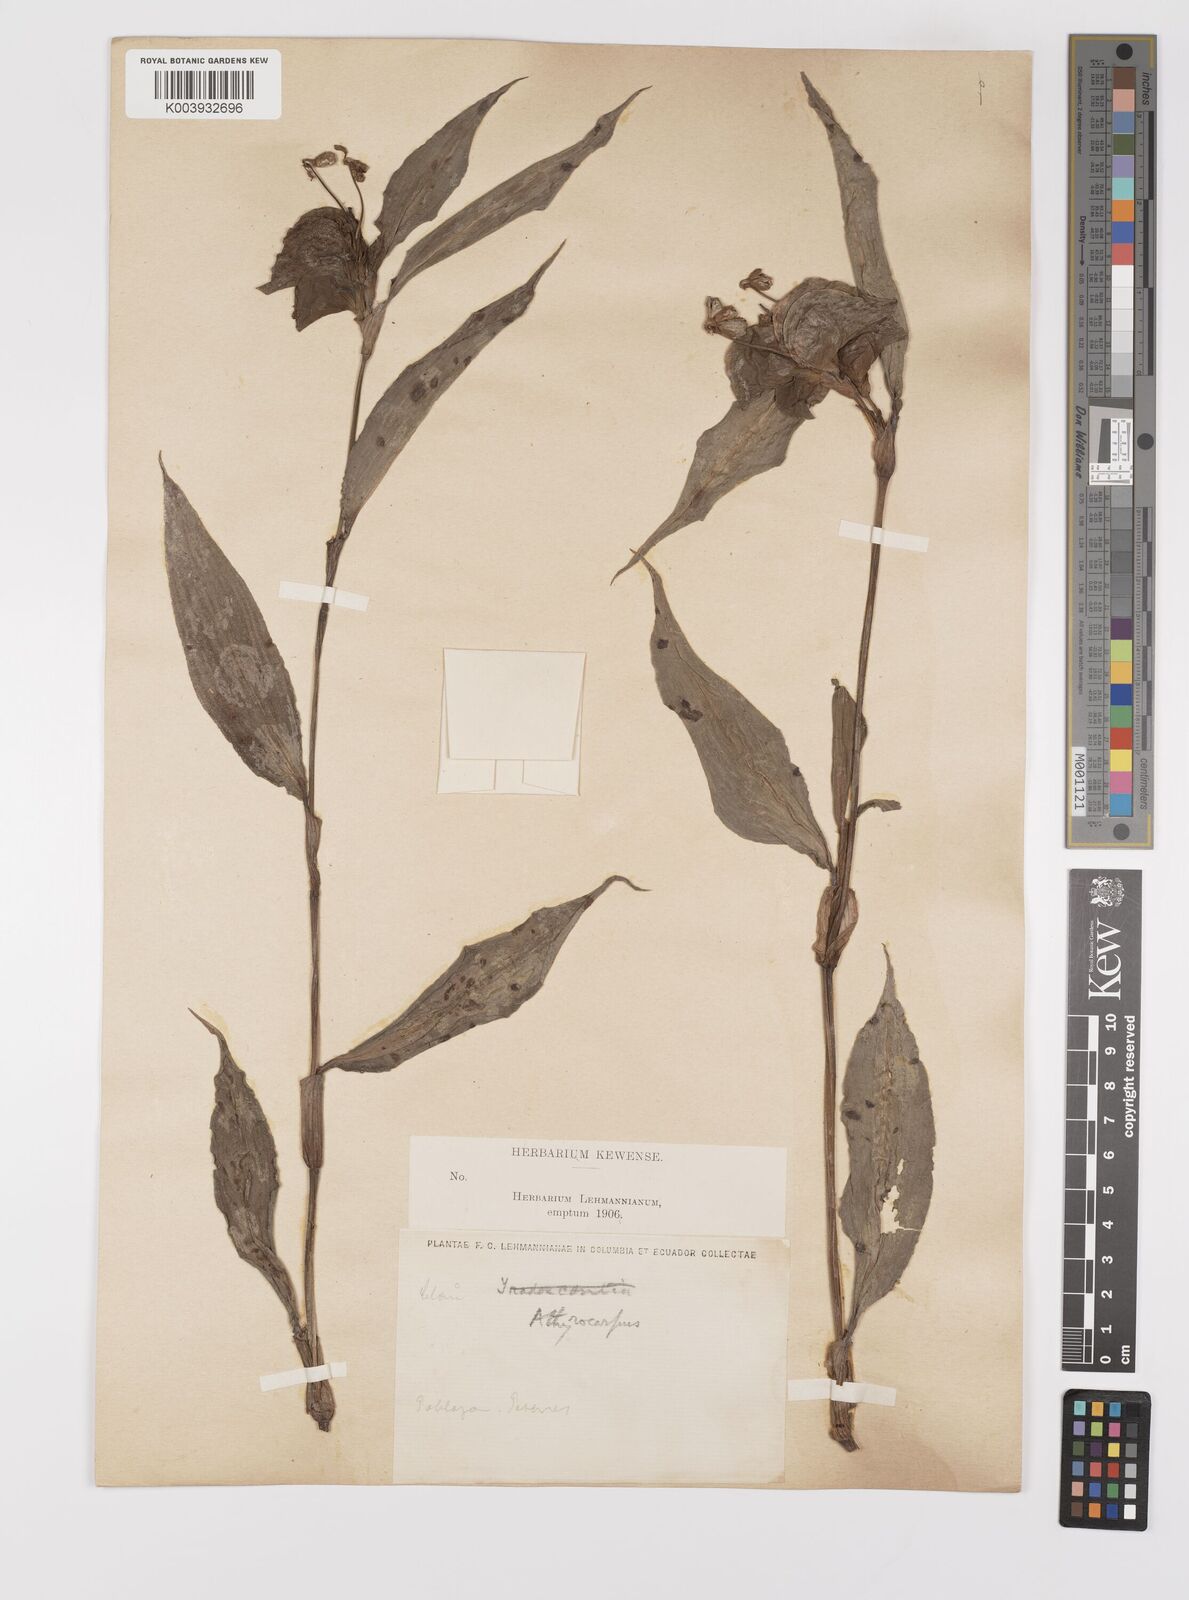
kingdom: Plantae
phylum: Tracheophyta
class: Liliopsida
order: Commelinales
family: Commelinaceae
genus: Commelina
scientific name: Commelina obliqua
